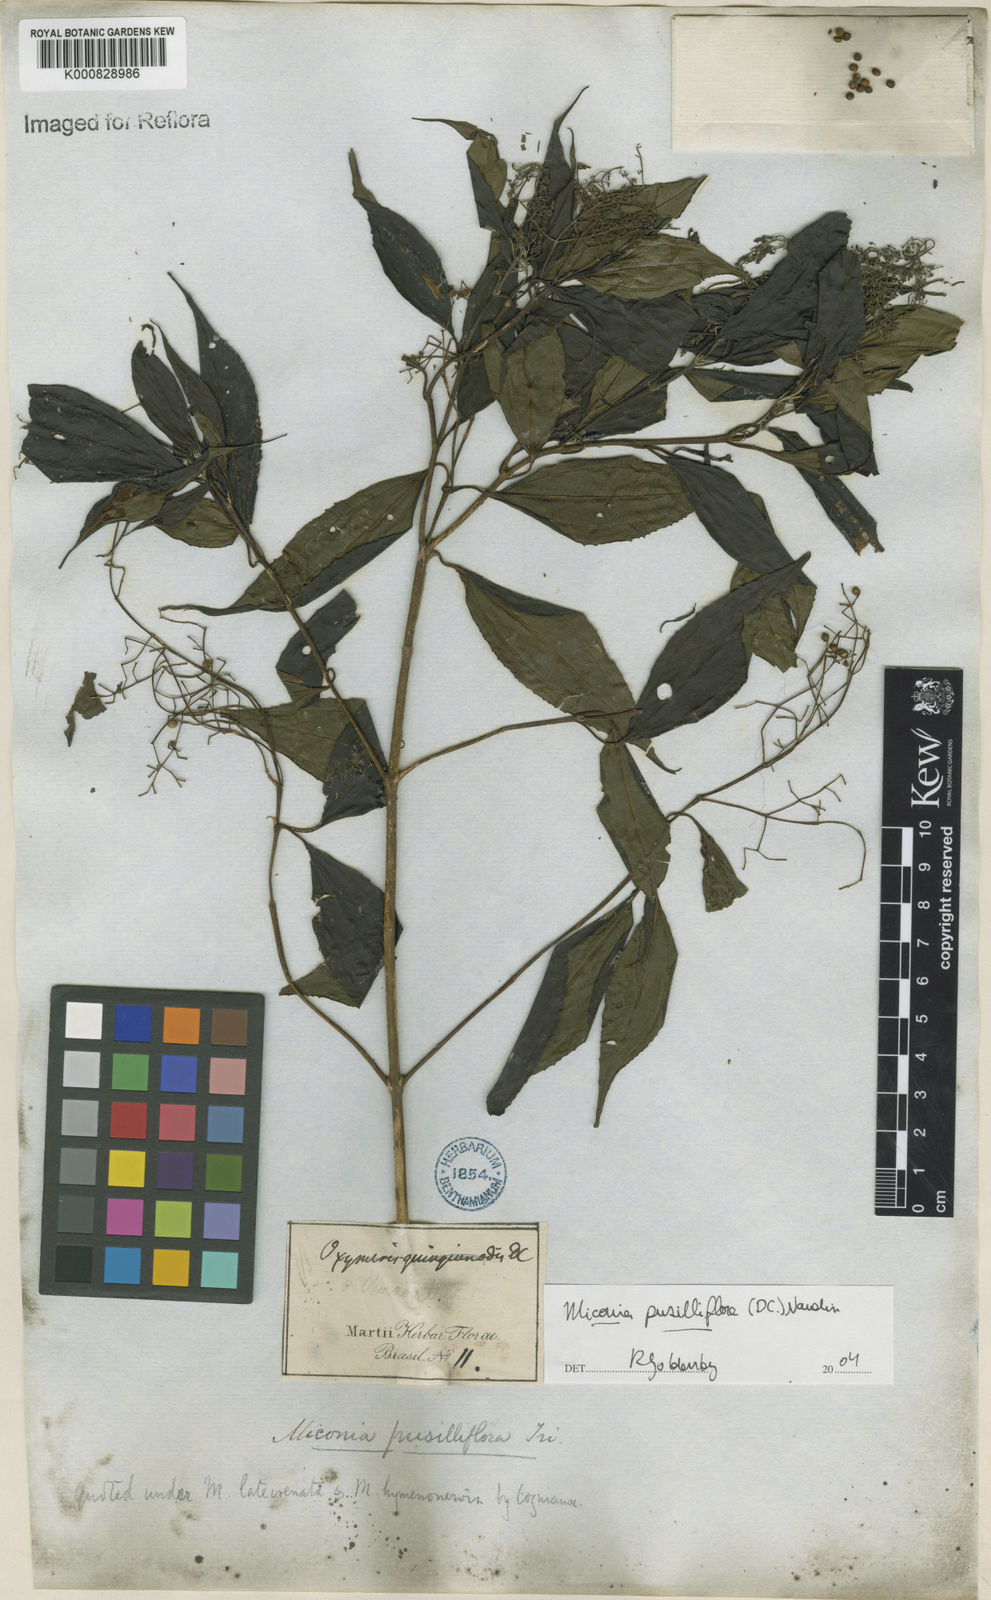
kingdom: Plantae
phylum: Tracheophyta
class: Magnoliopsida
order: Myrtales
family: Melastomataceae
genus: Miconia
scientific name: Miconia pusilliflora
